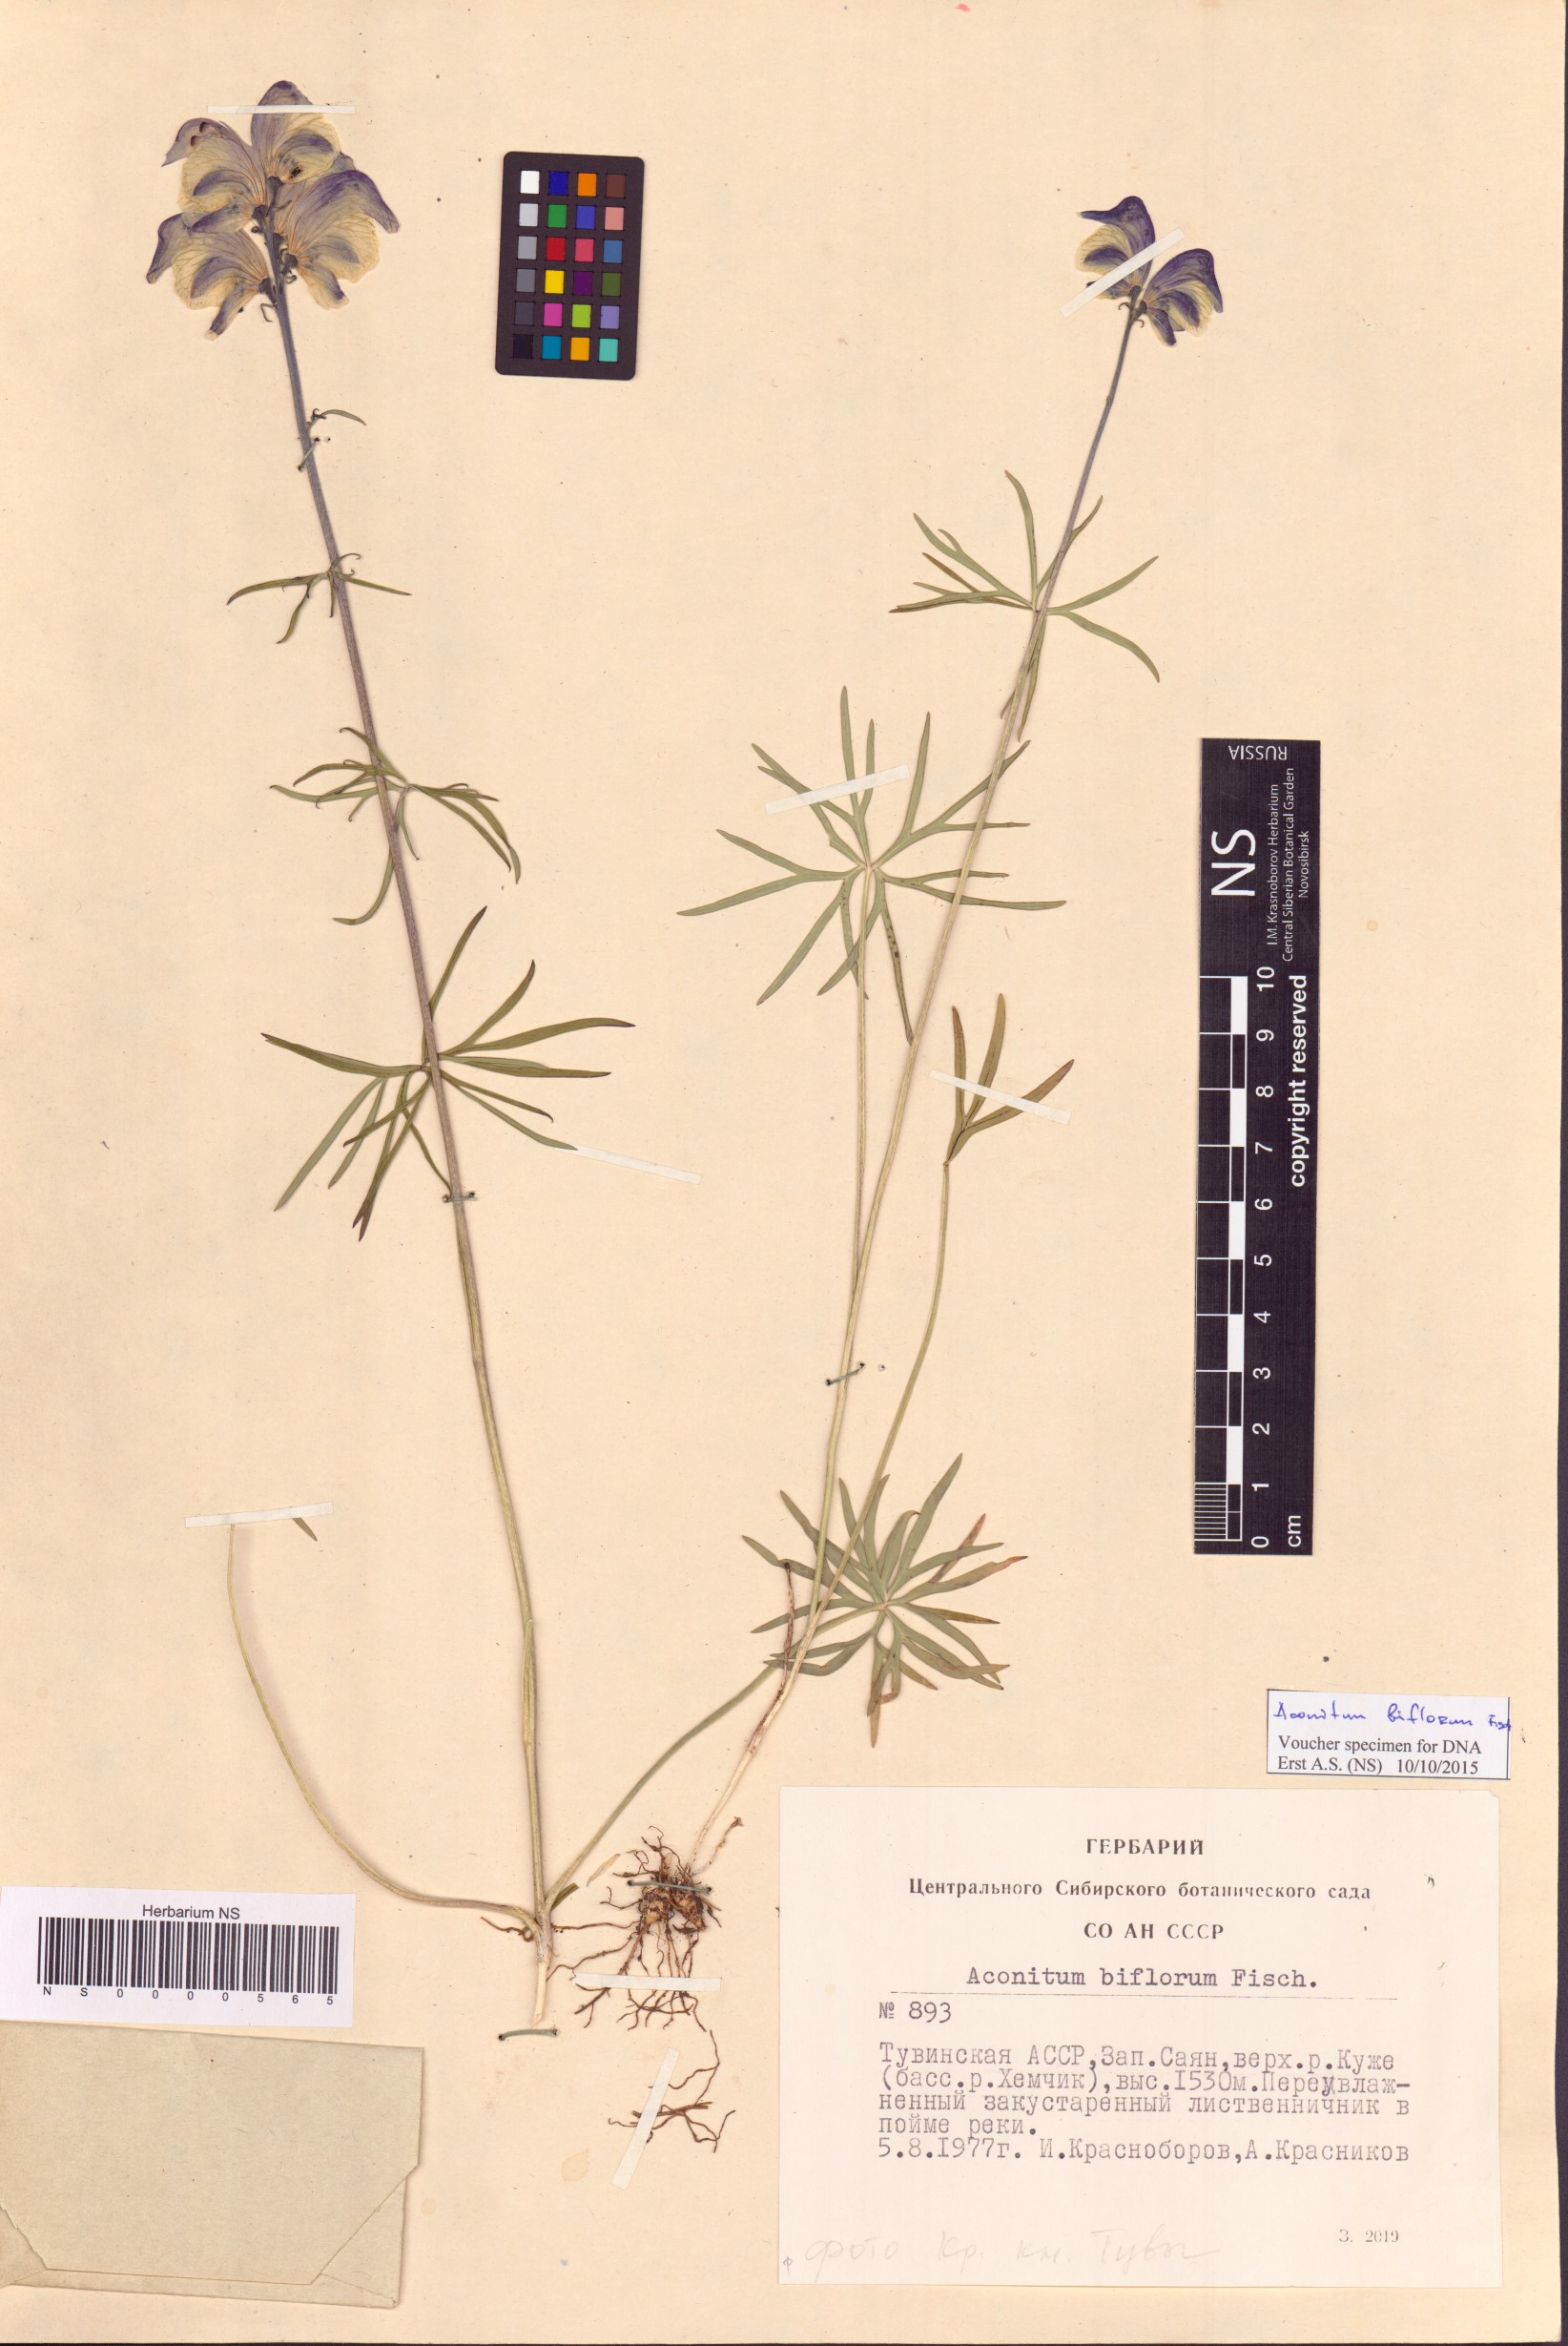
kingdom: Plantae
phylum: Tracheophyta
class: Magnoliopsida
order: Ranunculales
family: Ranunculaceae
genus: Aconitum
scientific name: Aconitum biflorum
